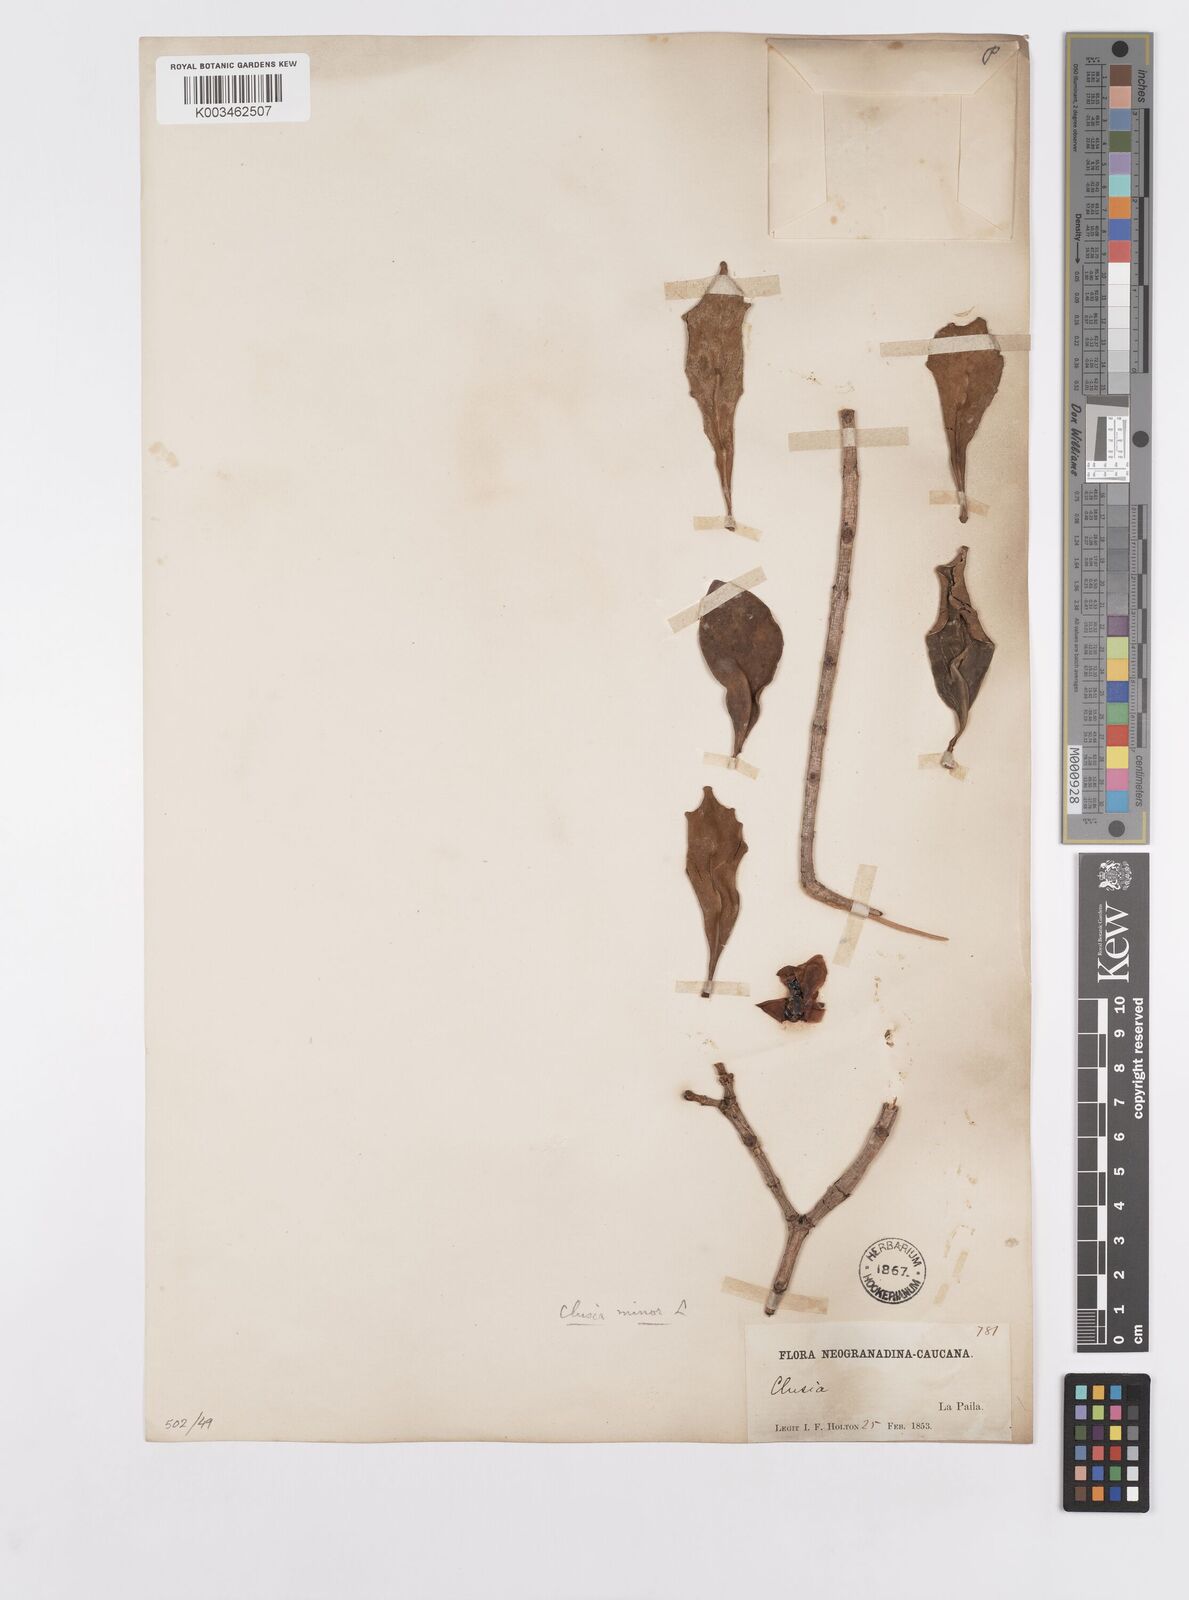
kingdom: Plantae
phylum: Tracheophyta
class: Magnoliopsida
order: Malpighiales
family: Clusiaceae
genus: Clusia
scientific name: Clusia minor
